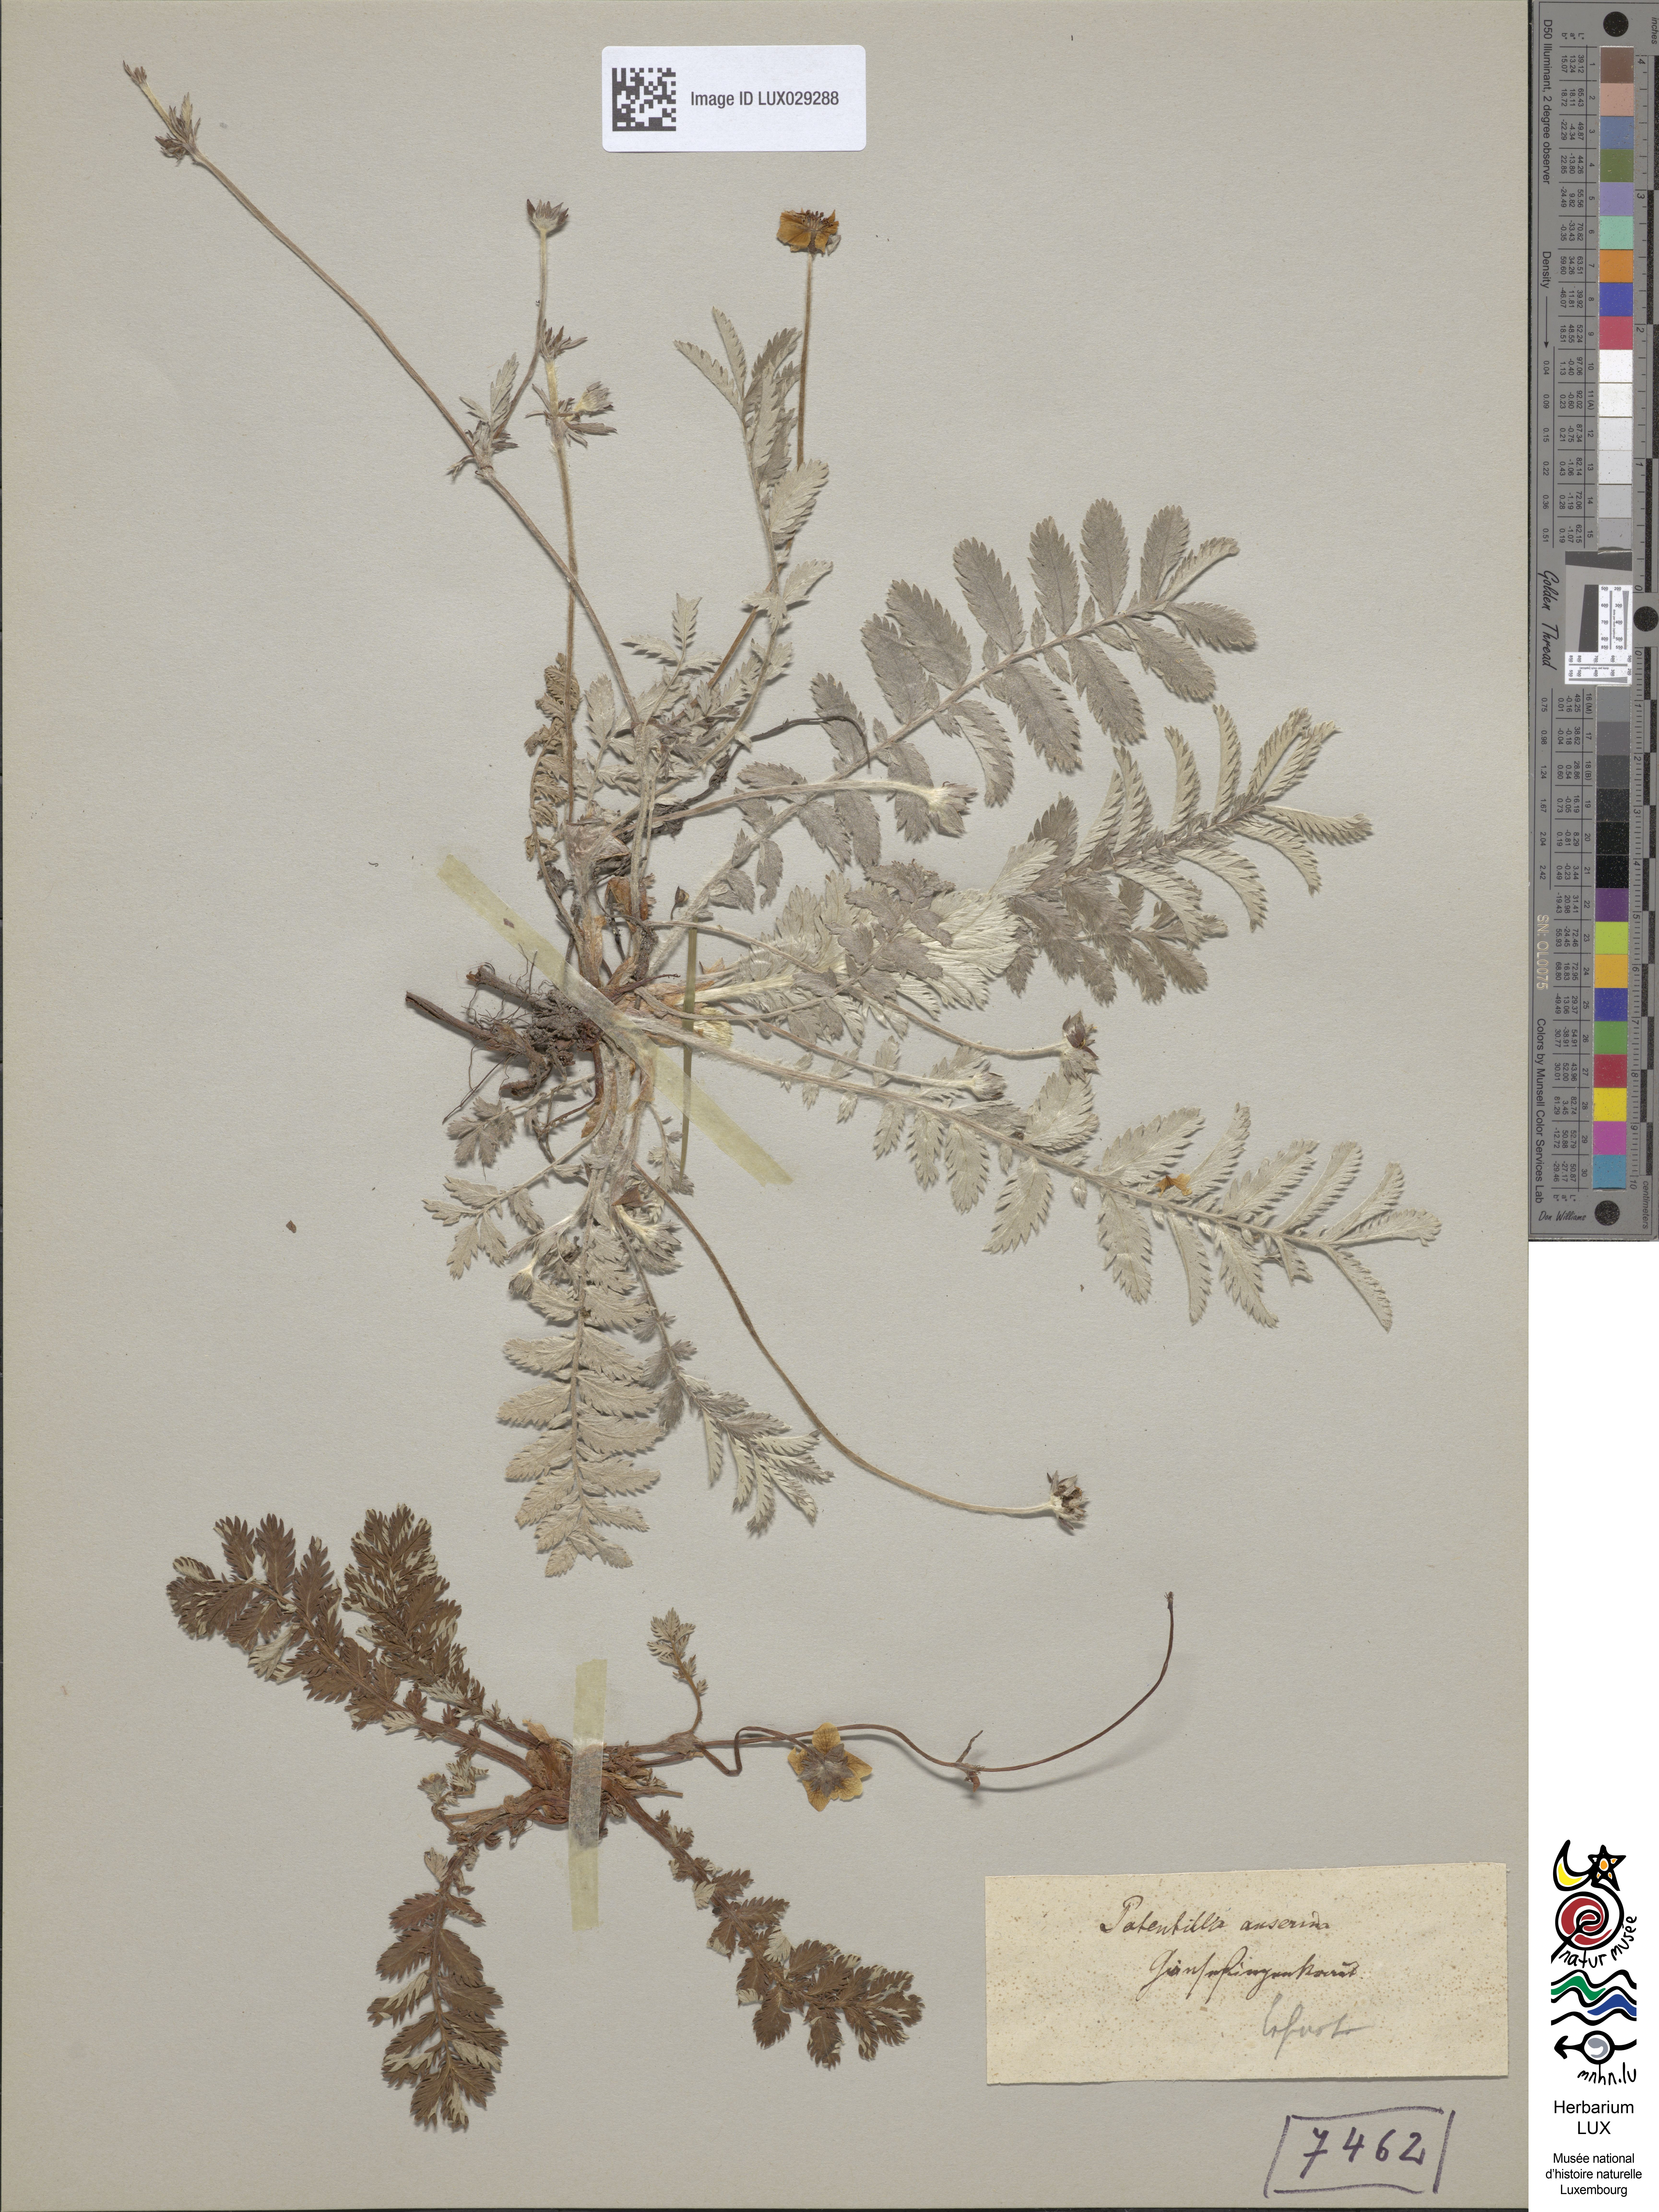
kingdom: Plantae
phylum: Tracheophyta
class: Magnoliopsida
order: Rosales
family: Rosaceae
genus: Argentina
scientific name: Argentina anserina
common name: Common silverweed
